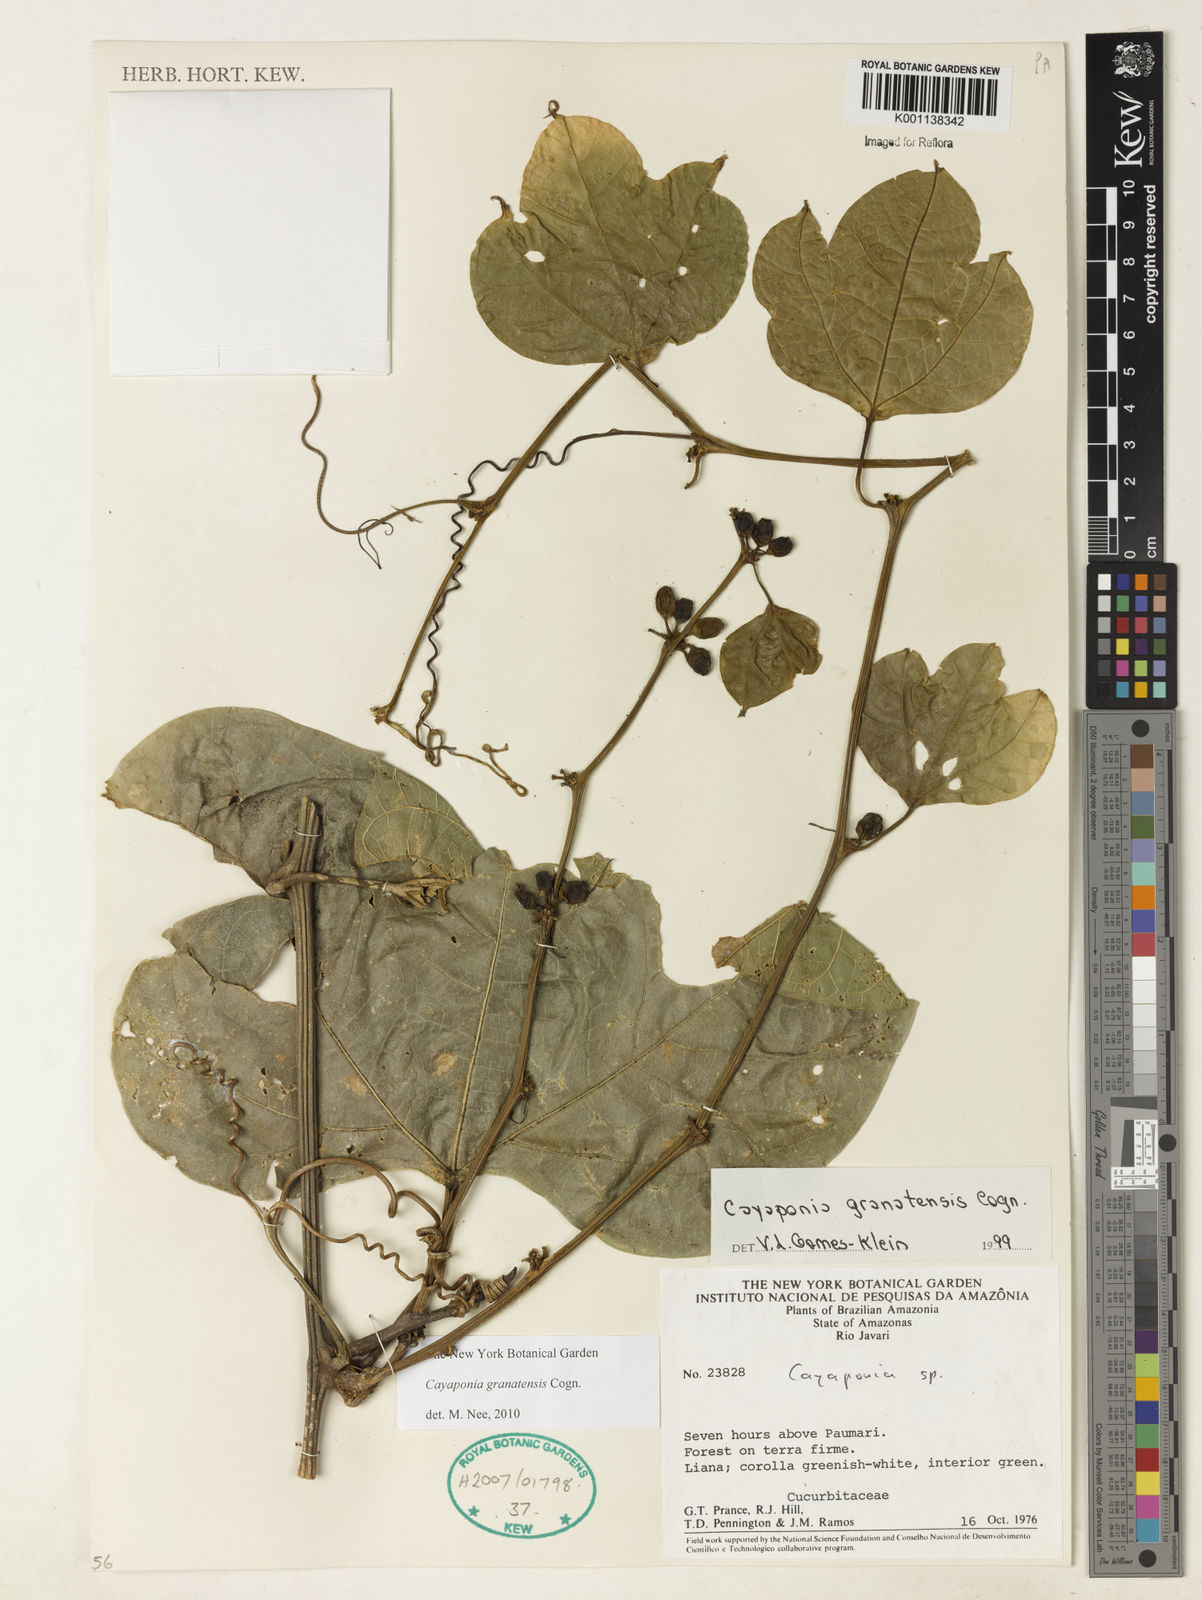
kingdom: Plantae
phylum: Tracheophyta
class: Magnoliopsida
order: Cucurbitales
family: Cucurbitaceae
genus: Cayaponia
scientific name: Cayaponia granatensis
